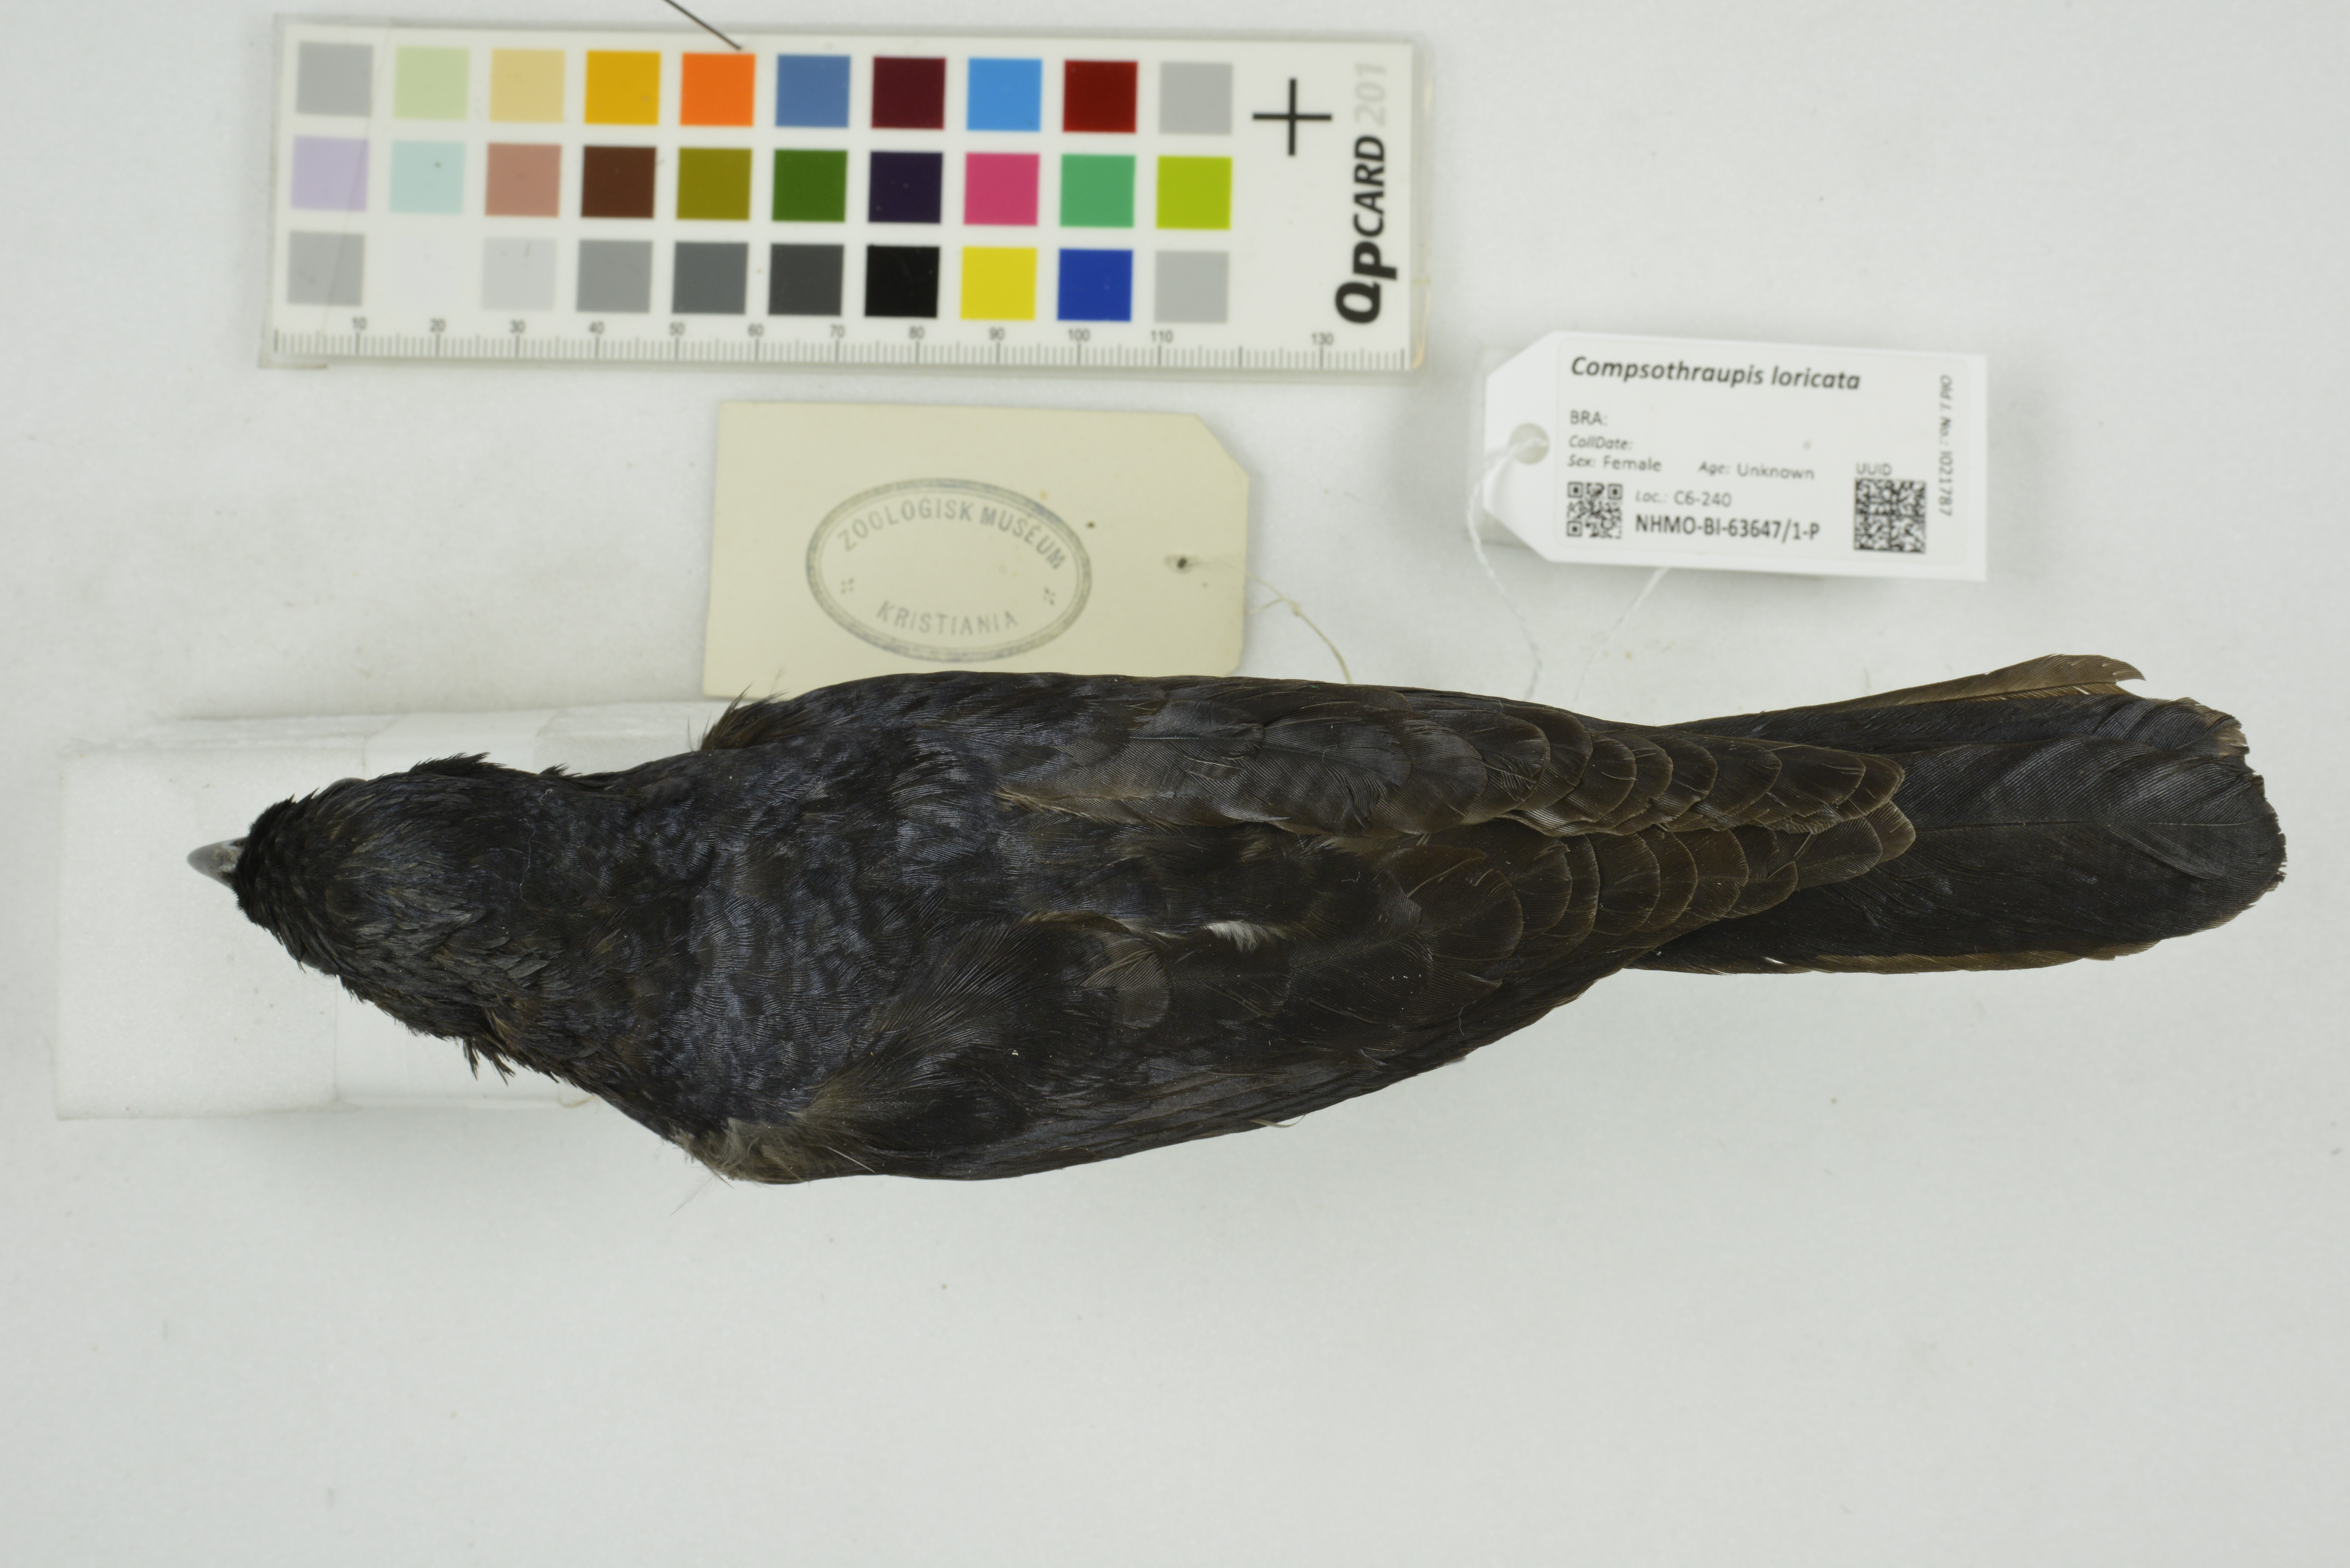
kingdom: Animalia
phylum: Chordata
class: Aves
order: Passeriformes
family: Thraupidae
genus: Compsothraupis
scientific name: Compsothraupis loricata
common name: Scarlet-throated tanager
